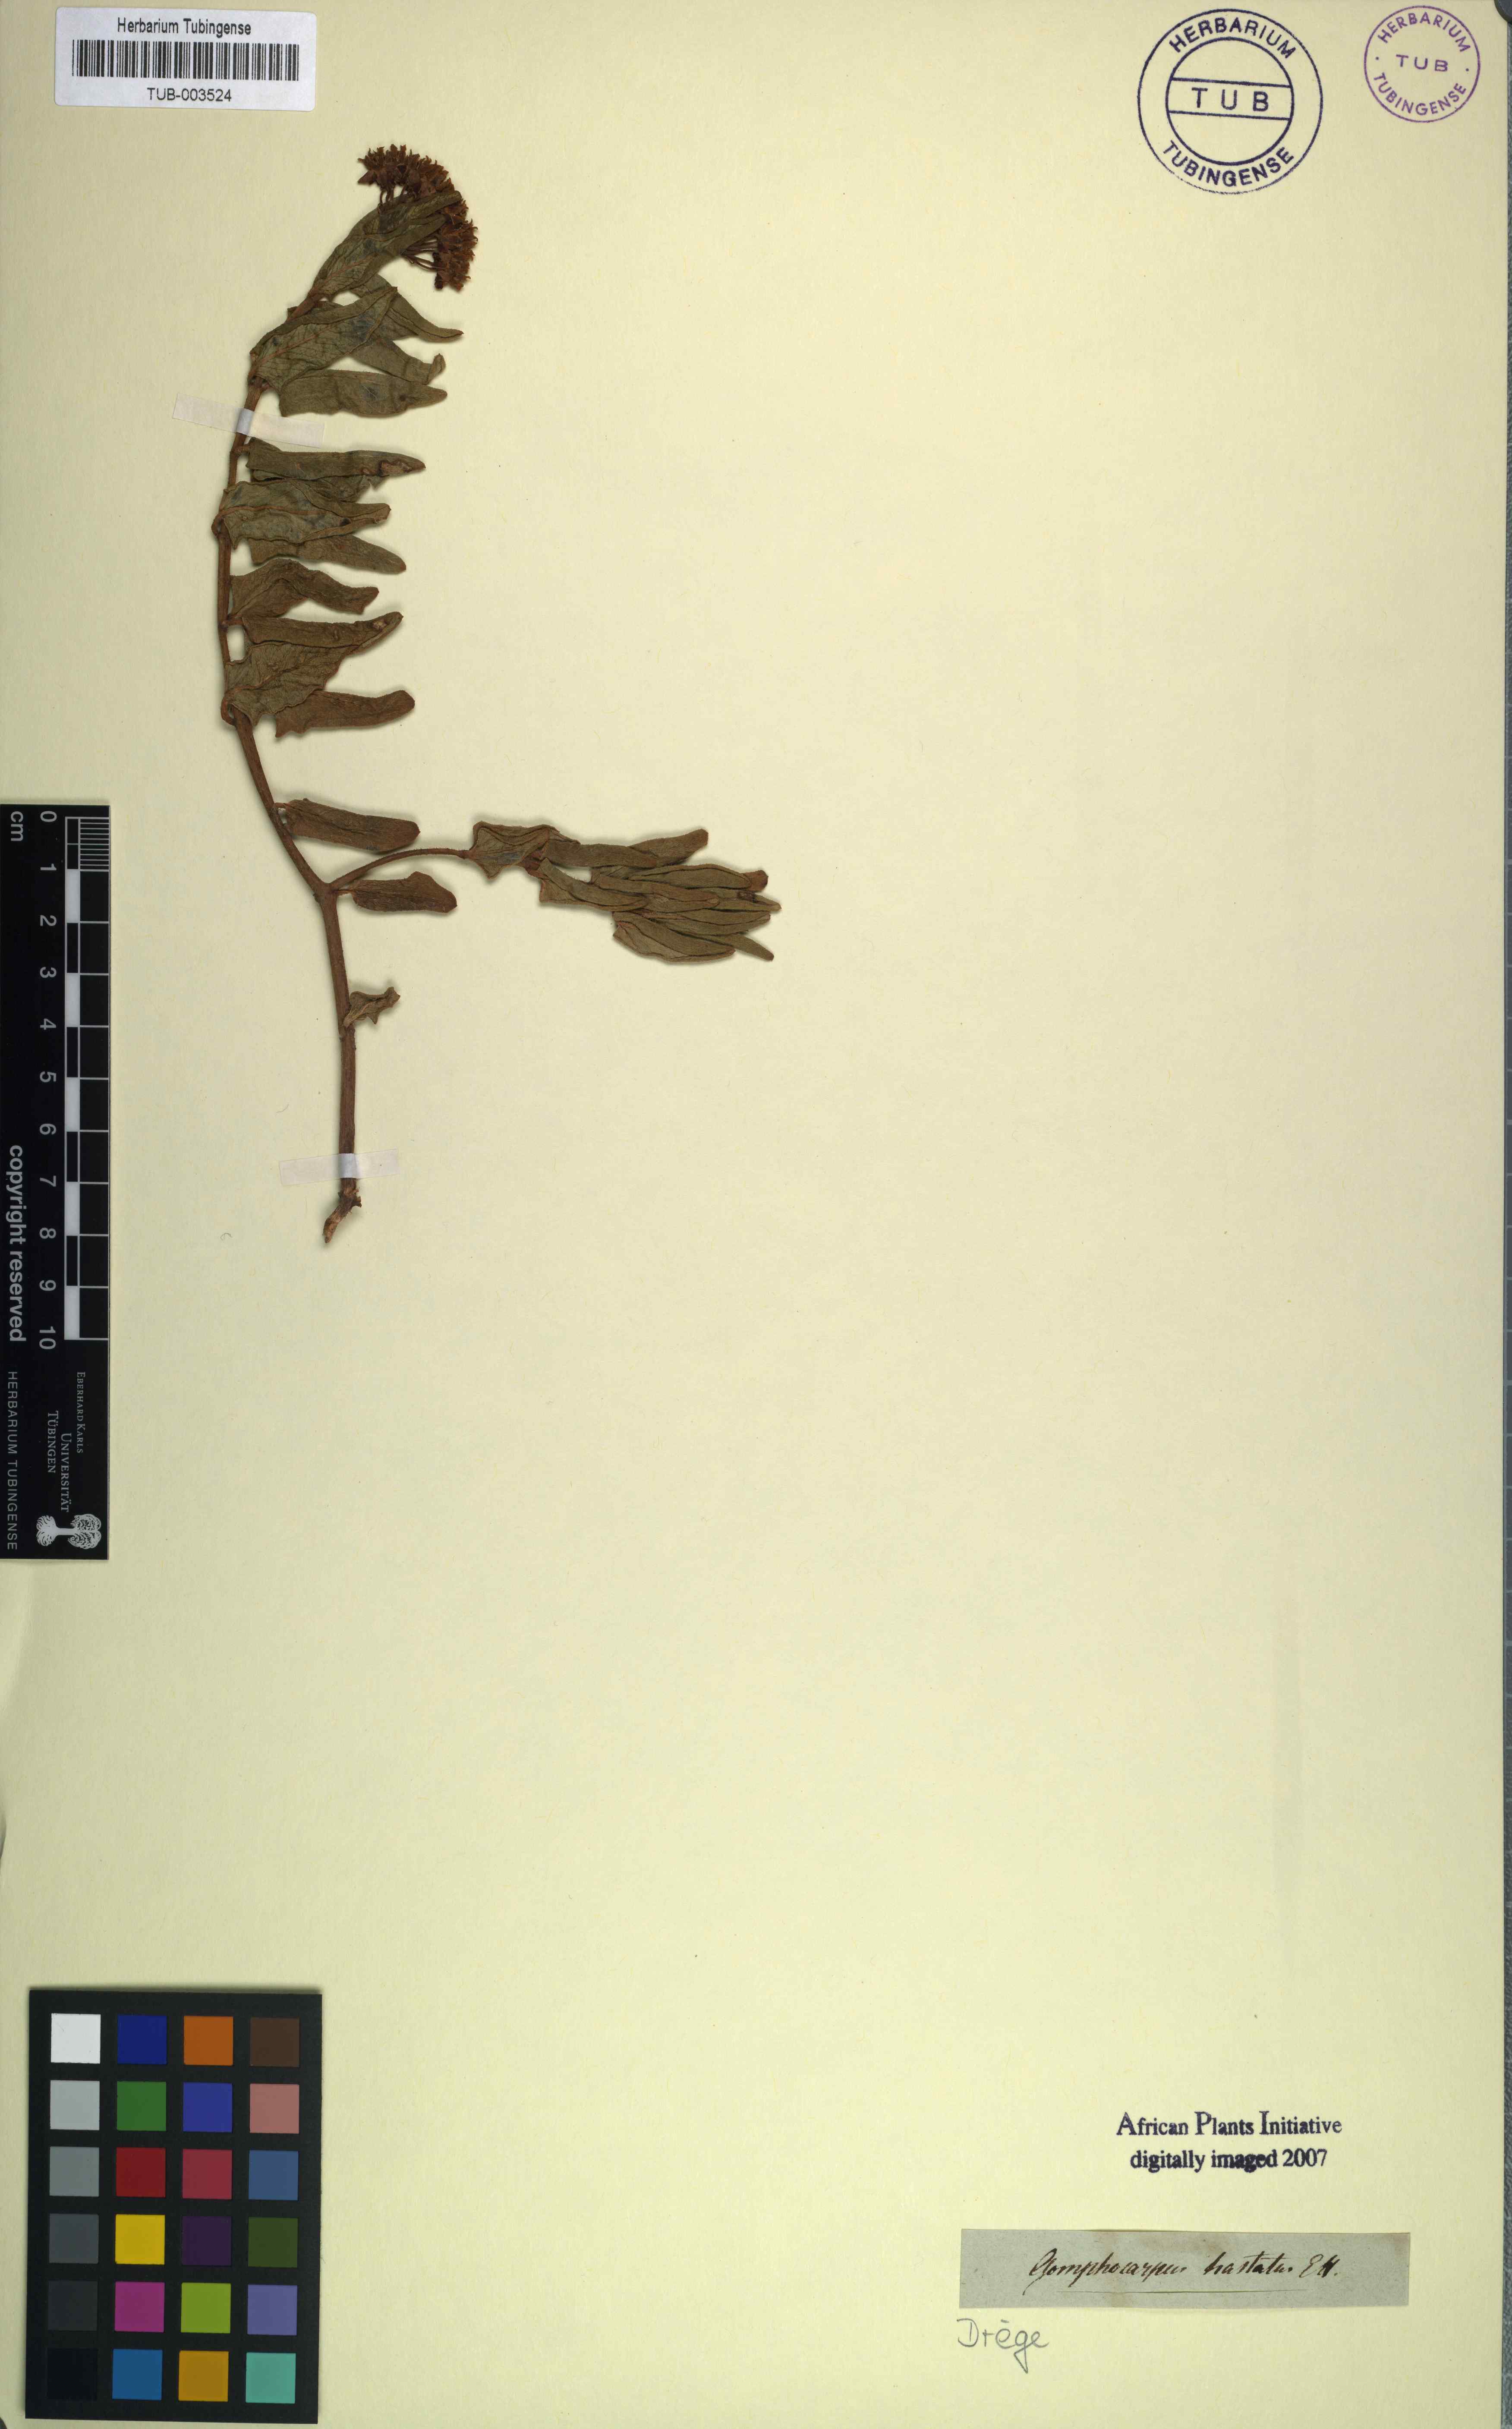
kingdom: Plantae
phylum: Tracheophyta
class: Magnoliopsida
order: Gentianales
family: Apocynaceae
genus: Asclepias
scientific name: Asclepias flanaganii
